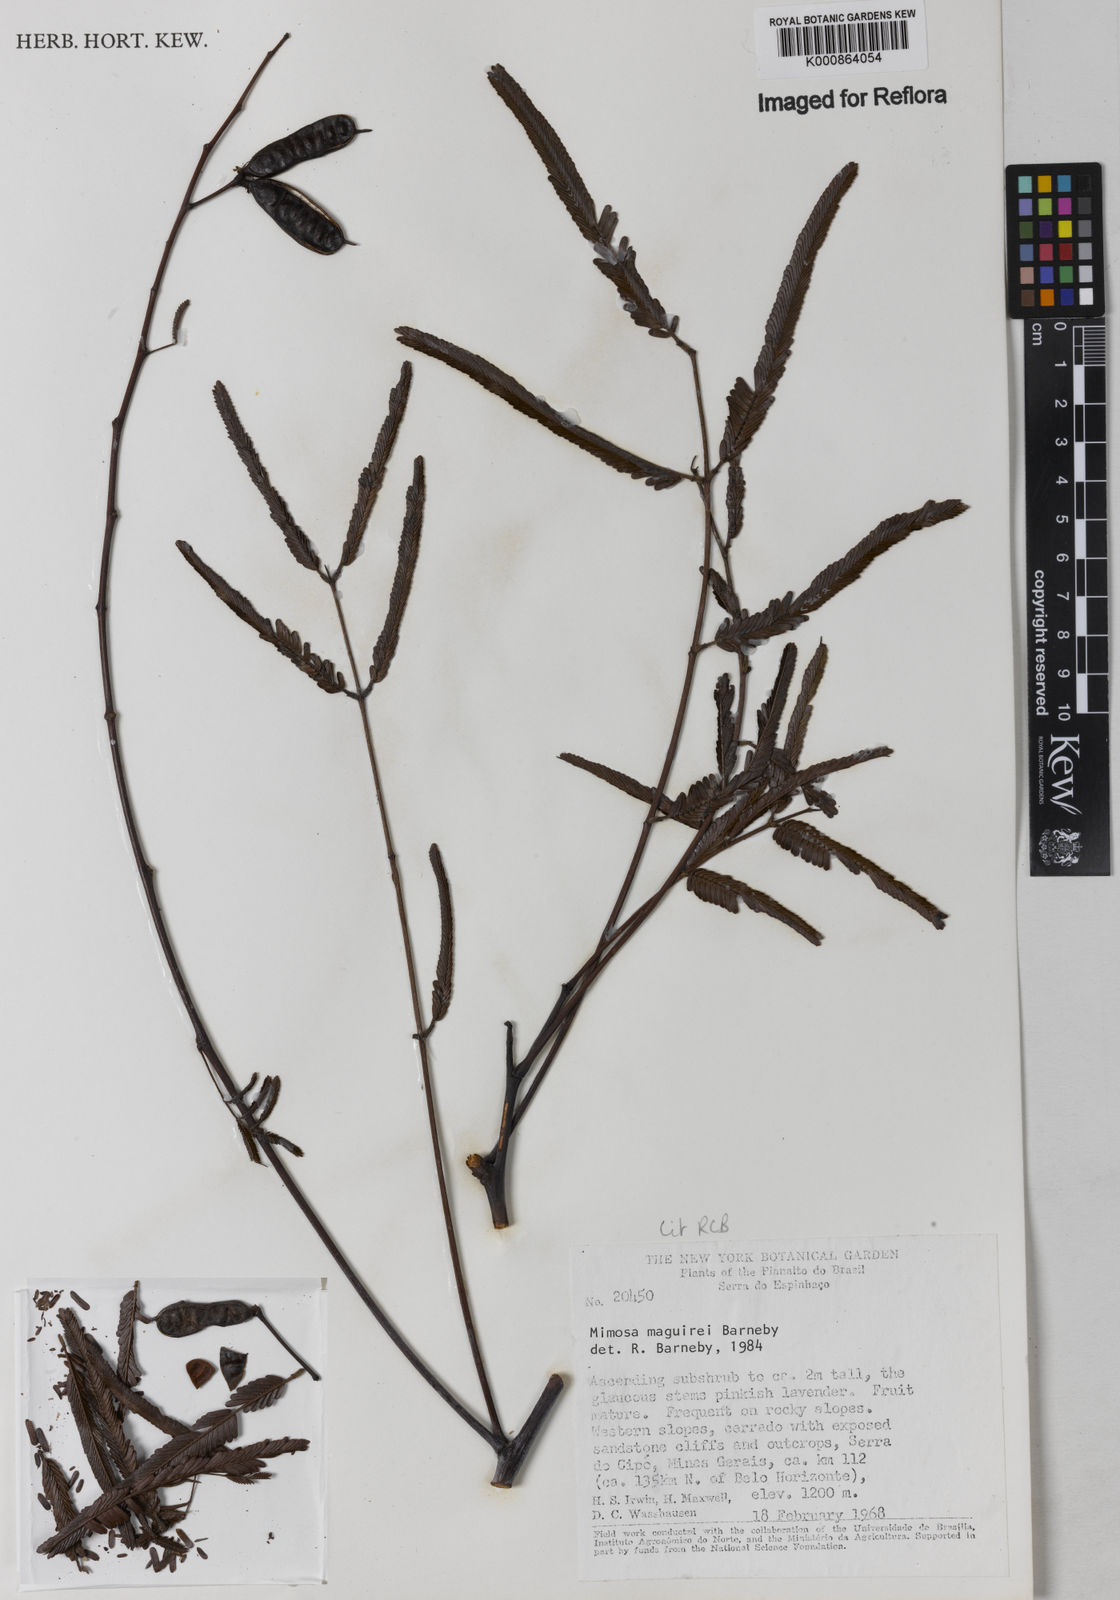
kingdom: Plantae
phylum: Tracheophyta
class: Magnoliopsida
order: Fabales
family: Fabaceae
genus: Mimosa
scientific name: Mimosa maguirei
